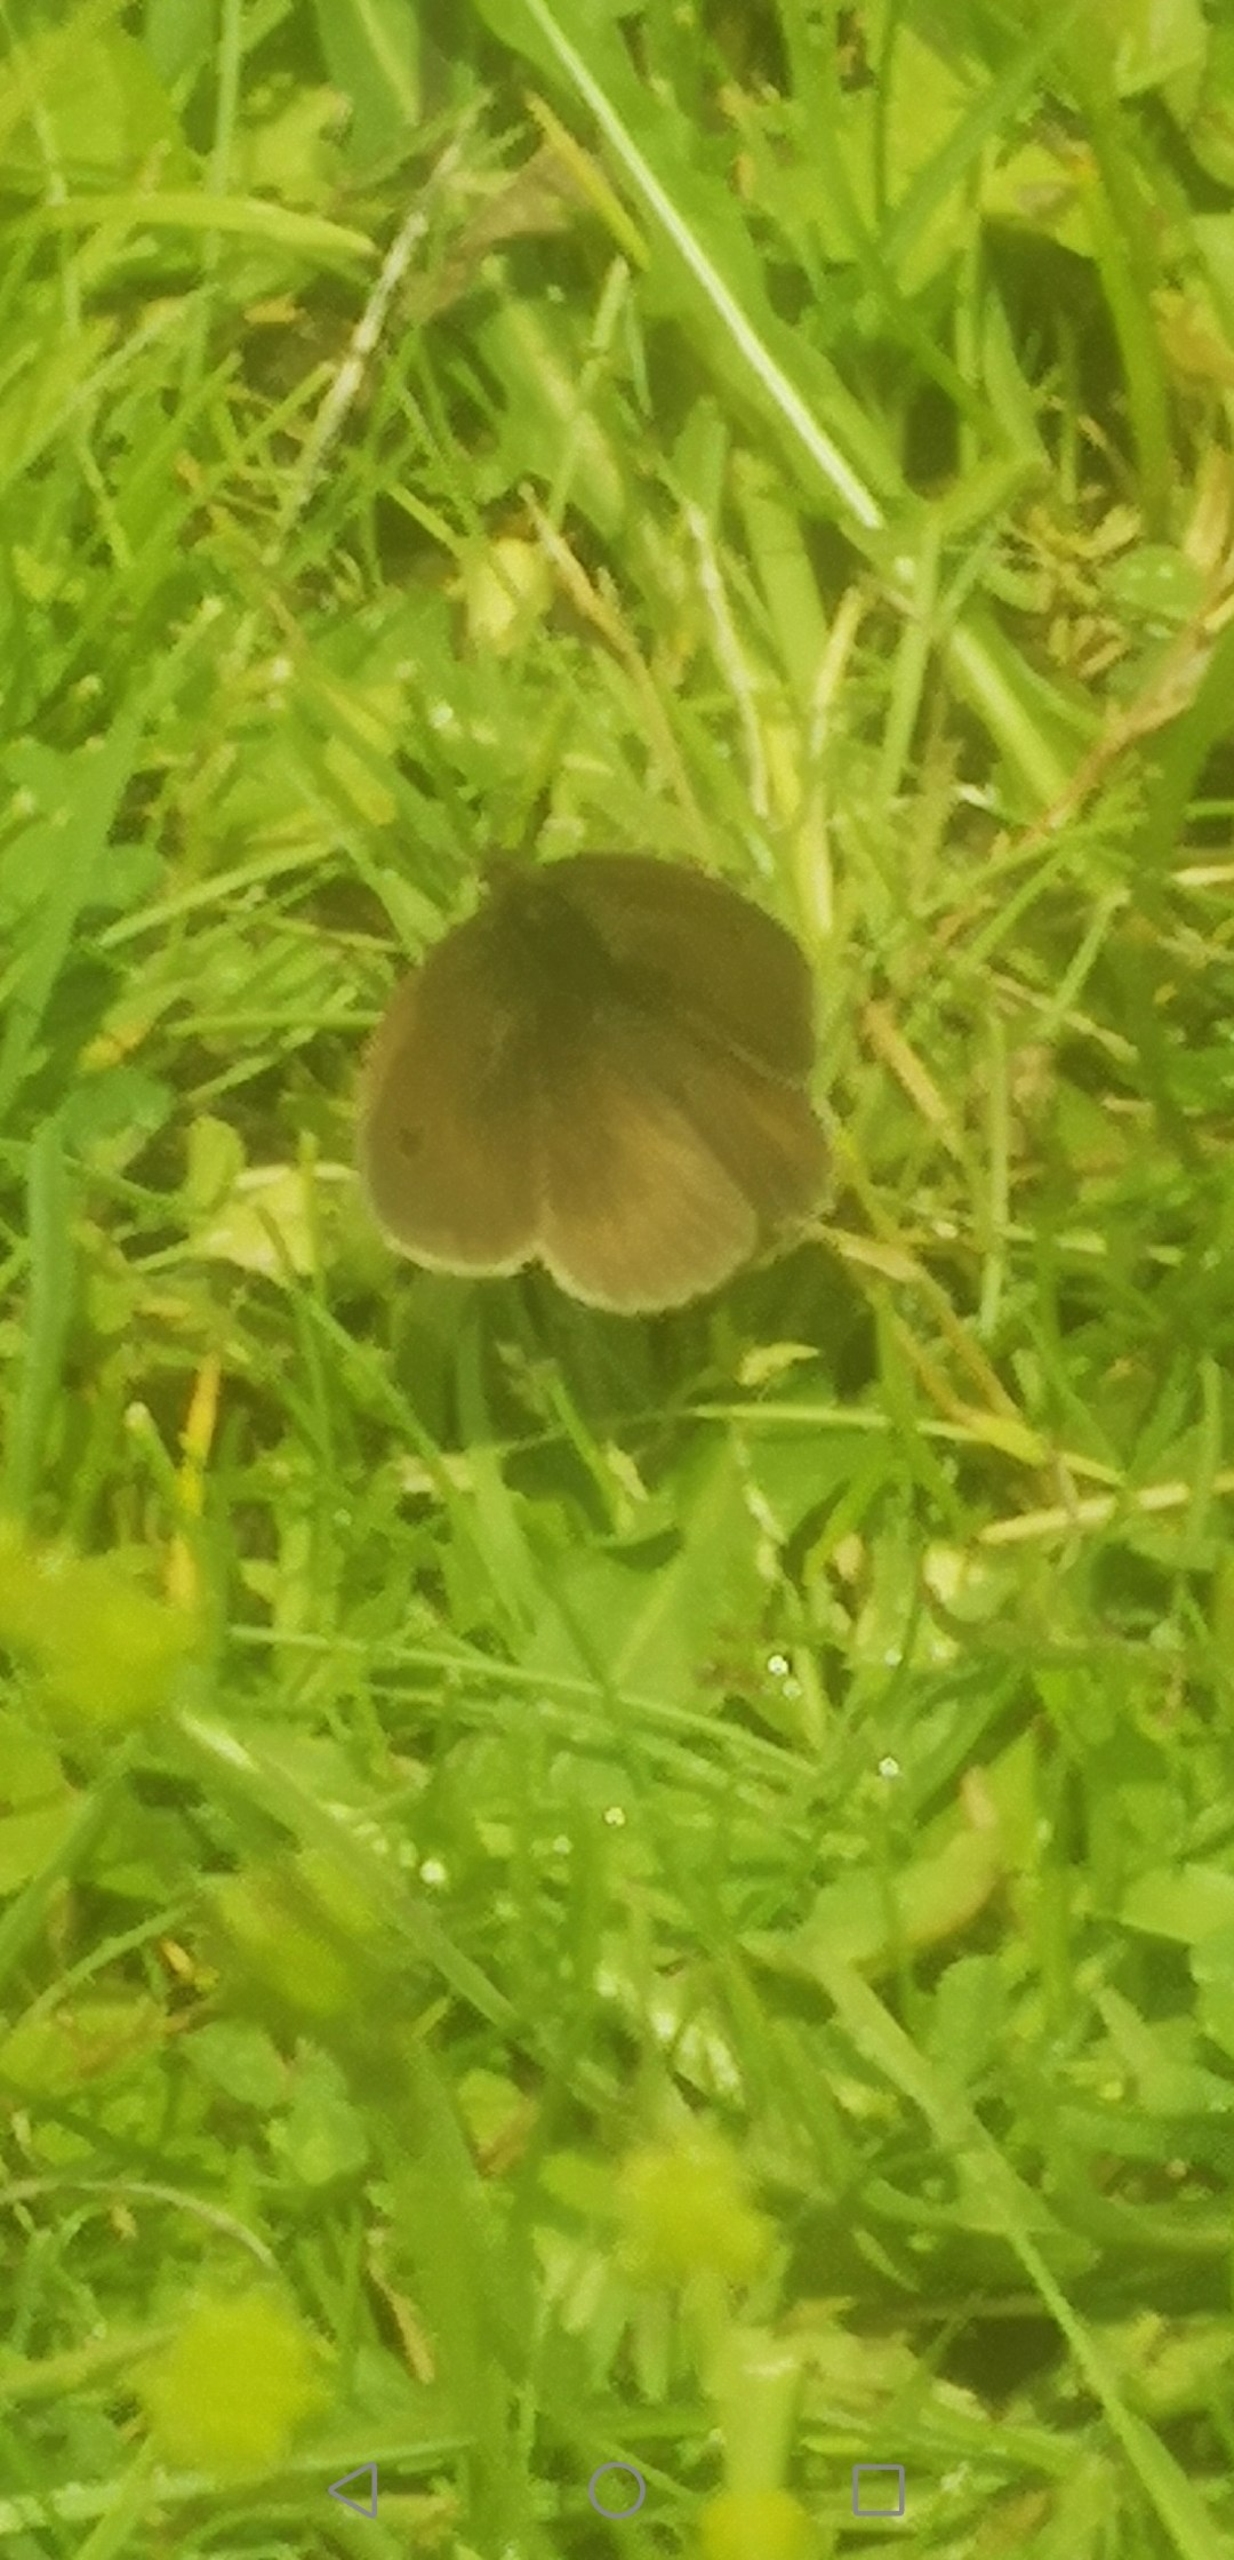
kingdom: Animalia
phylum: Arthropoda
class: Insecta
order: Lepidoptera
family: Nymphalidae
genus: Maniola
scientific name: Maniola jurtina
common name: Græsrandøje
